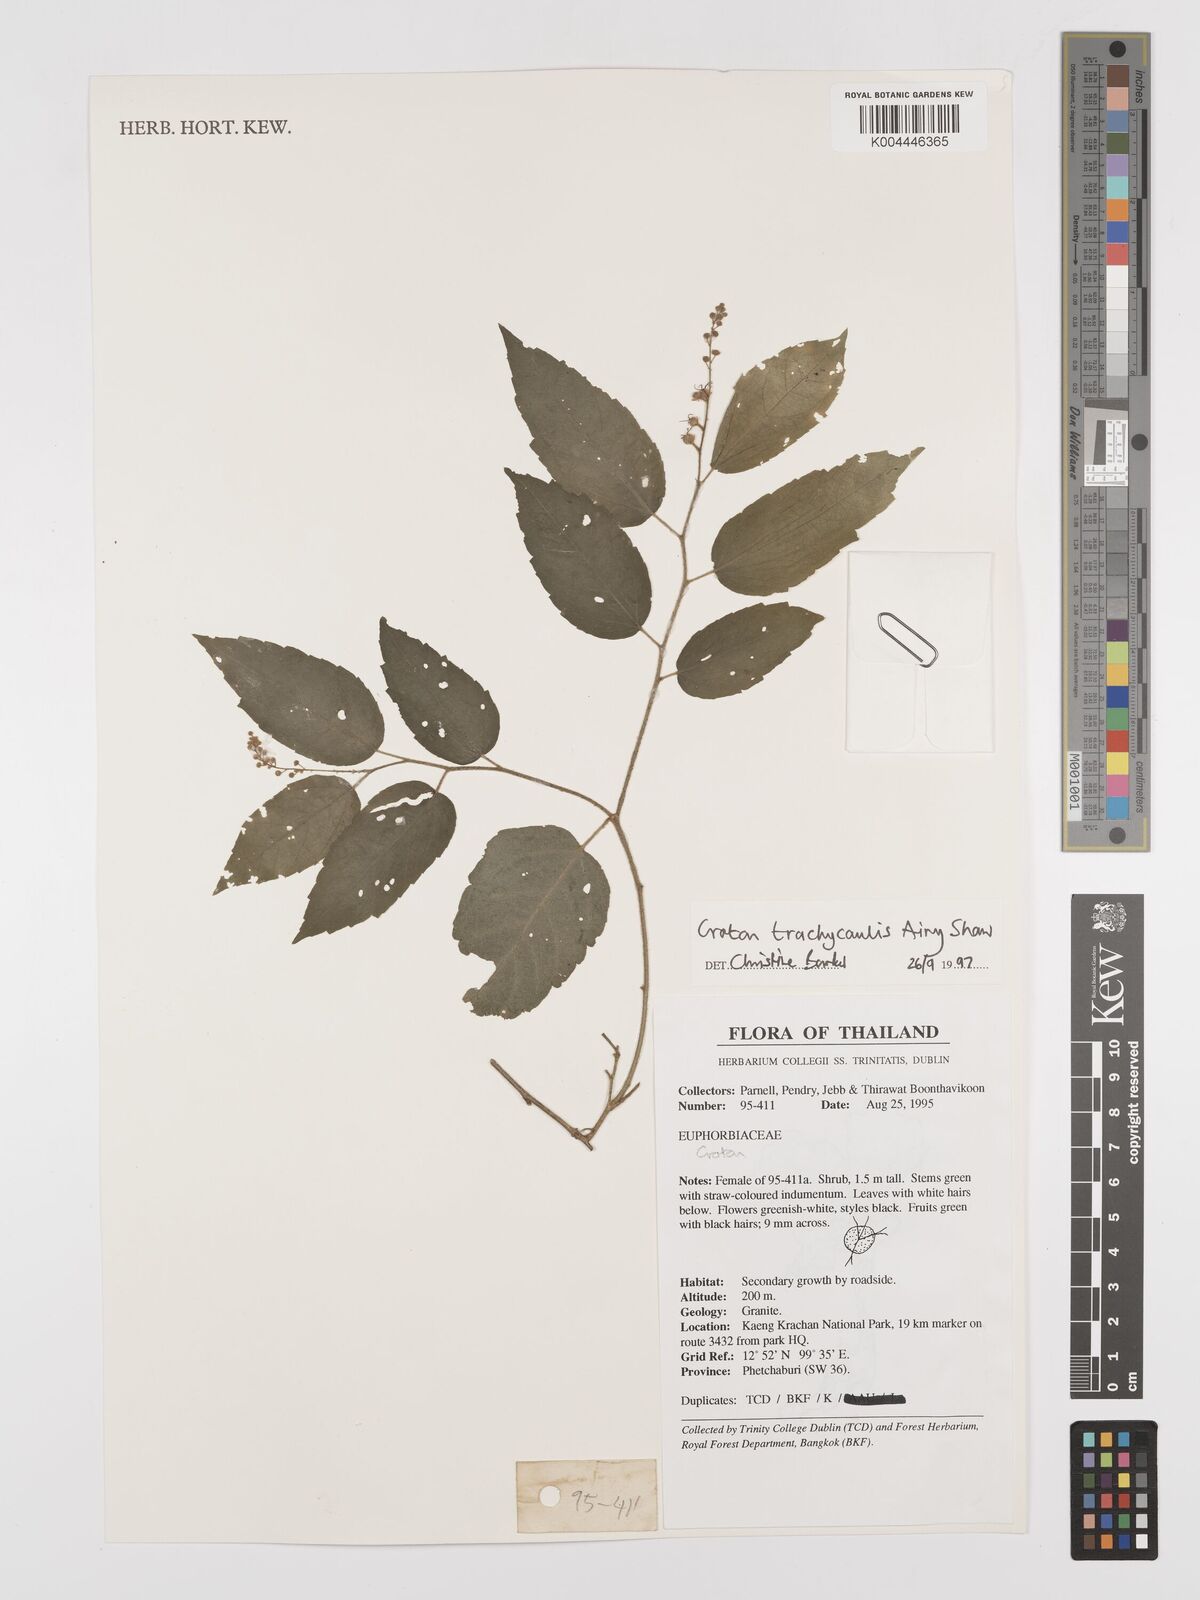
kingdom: Plantae
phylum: Tracheophyta
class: Magnoliopsida
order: Malpighiales
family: Euphorbiaceae
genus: Croton
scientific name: Croton lachnocarpus
